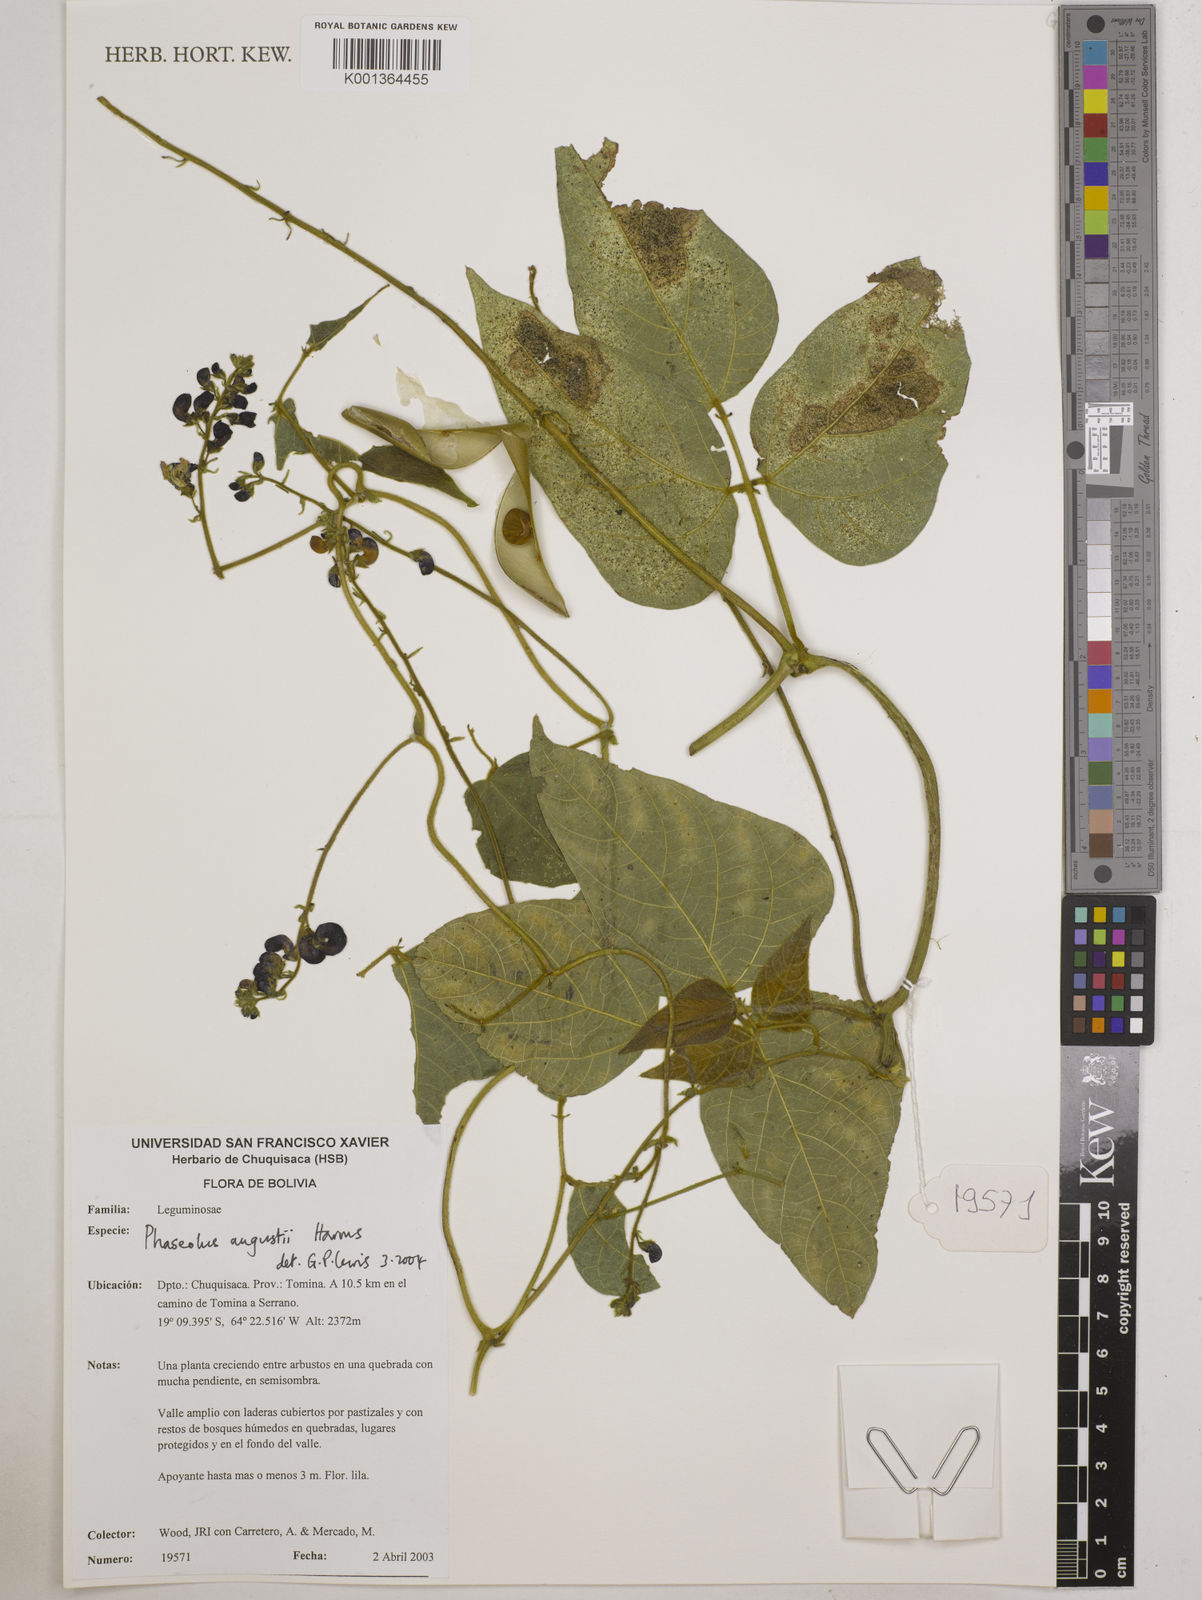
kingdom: Plantae
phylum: Tracheophyta
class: Magnoliopsida
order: Fabales
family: Fabaceae
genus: Phaseolus
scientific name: Phaseolus augusti
